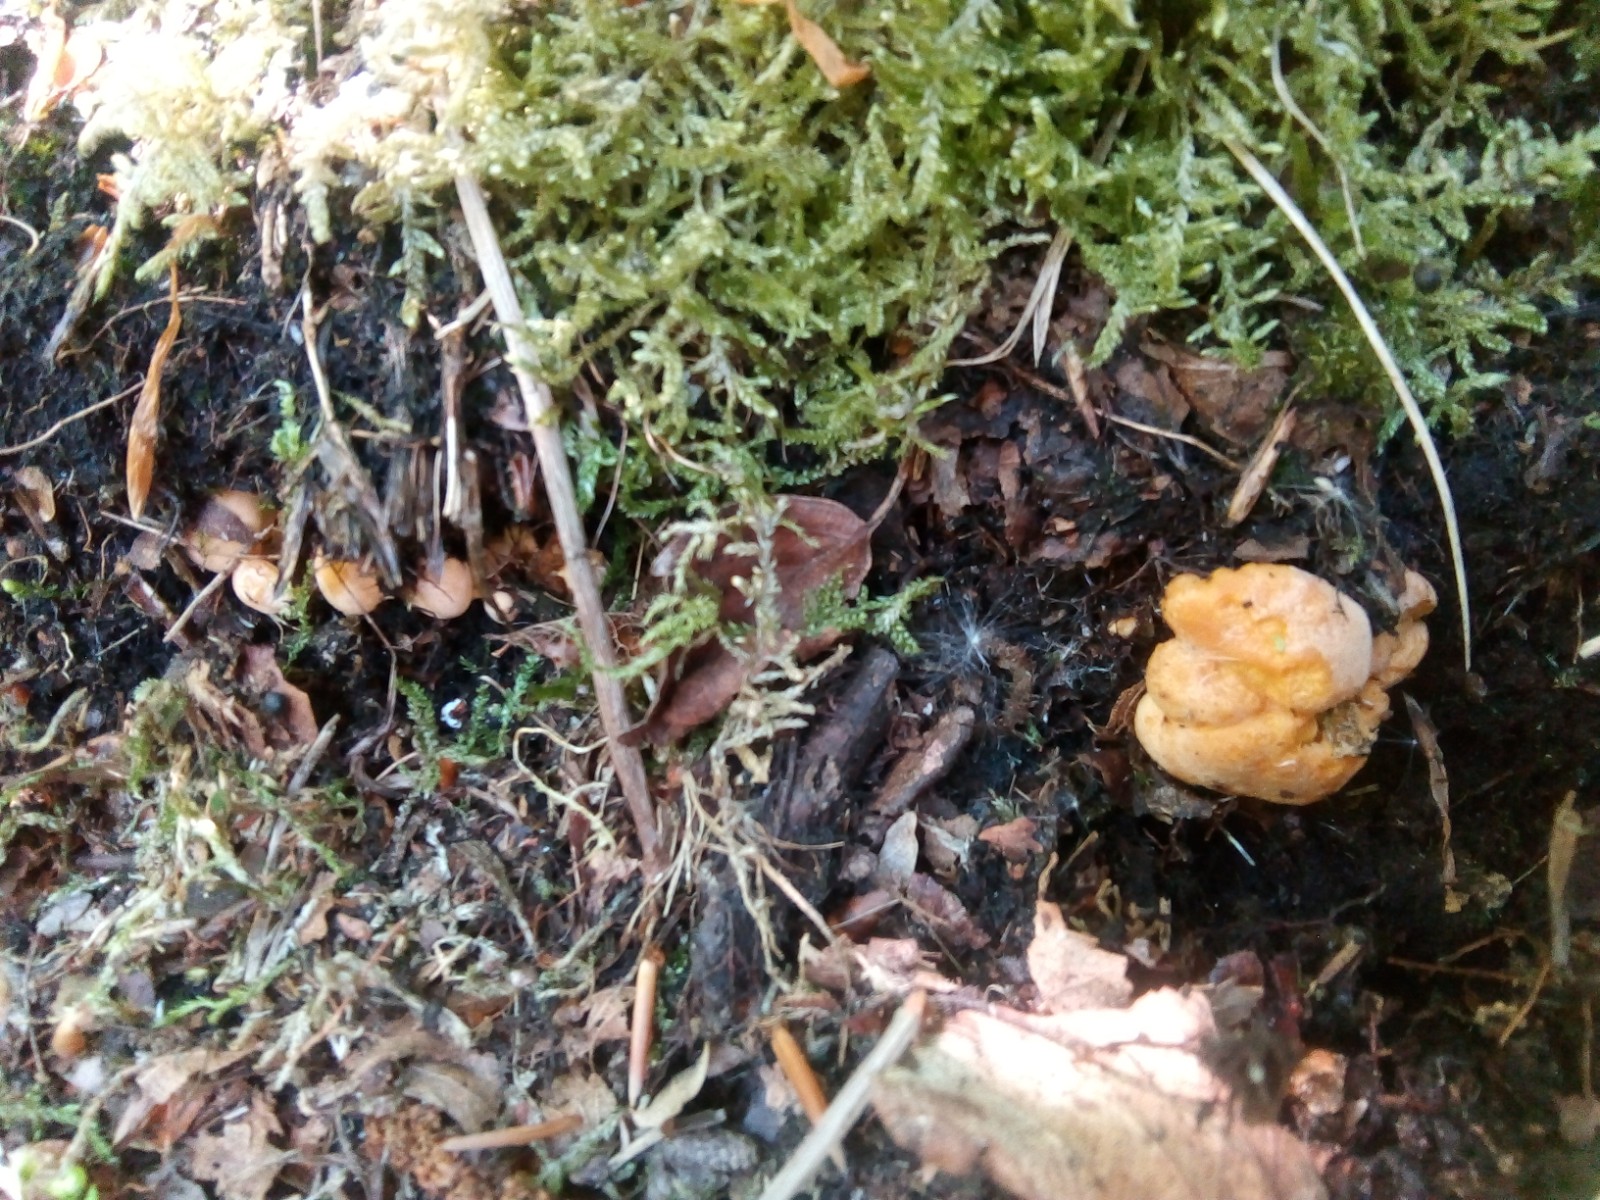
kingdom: Fungi
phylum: Basidiomycota
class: Agaricomycetes
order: Cantharellales
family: Hydnaceae
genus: Cantharellus
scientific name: Cantharellus cibarius
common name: almindelig kantarel
